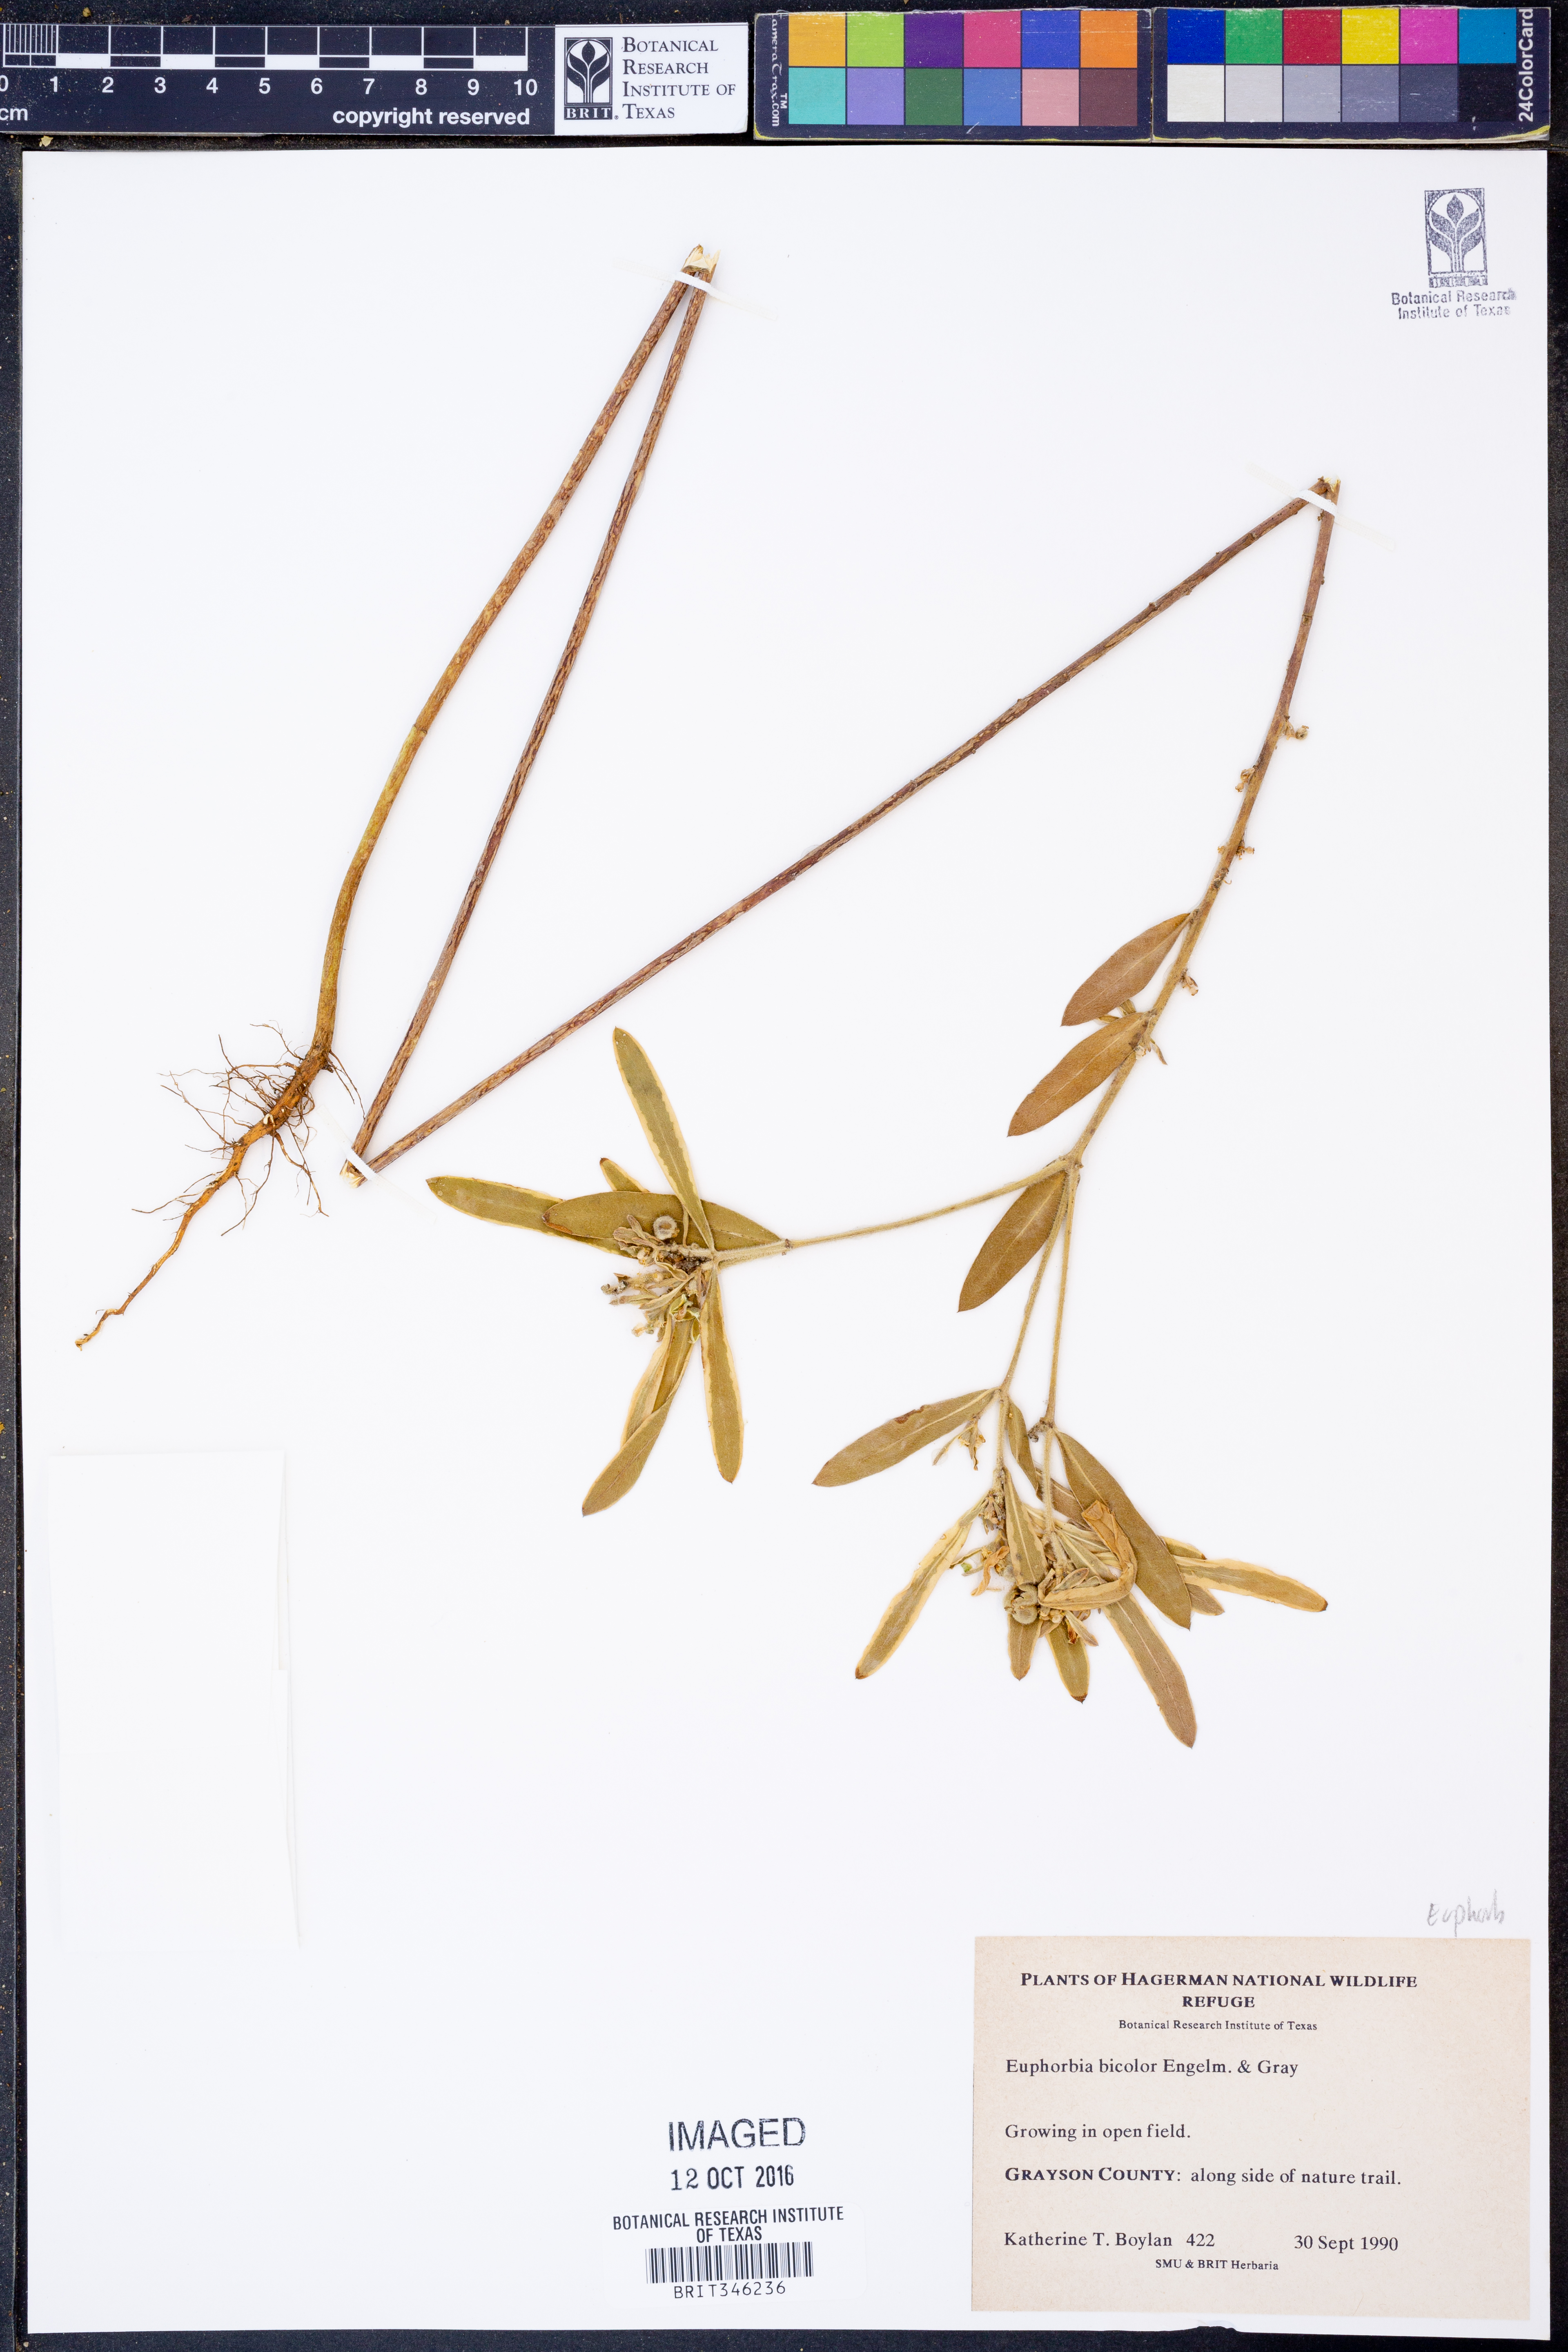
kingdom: Plantae
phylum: Tracheophyta
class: Magnoliopsida
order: Malpighiales
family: Euphorbiaceae
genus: Euphorbia
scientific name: Euphorbia bicolor
